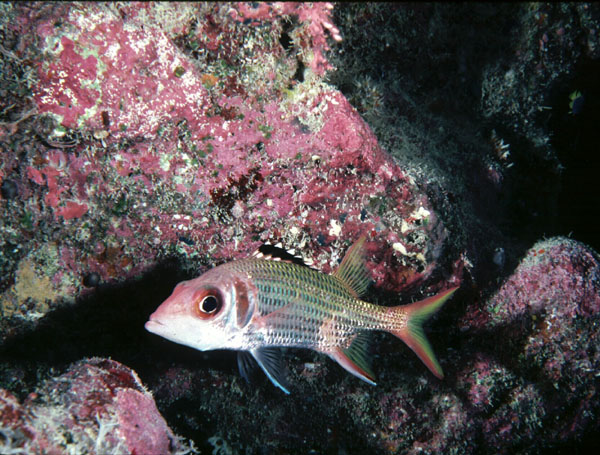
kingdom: Animalia
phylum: Chordata
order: Beryciformes
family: Holocentridae
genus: Neoniphon
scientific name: Neoniphon opercularis
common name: Blackfin squirrelfish
